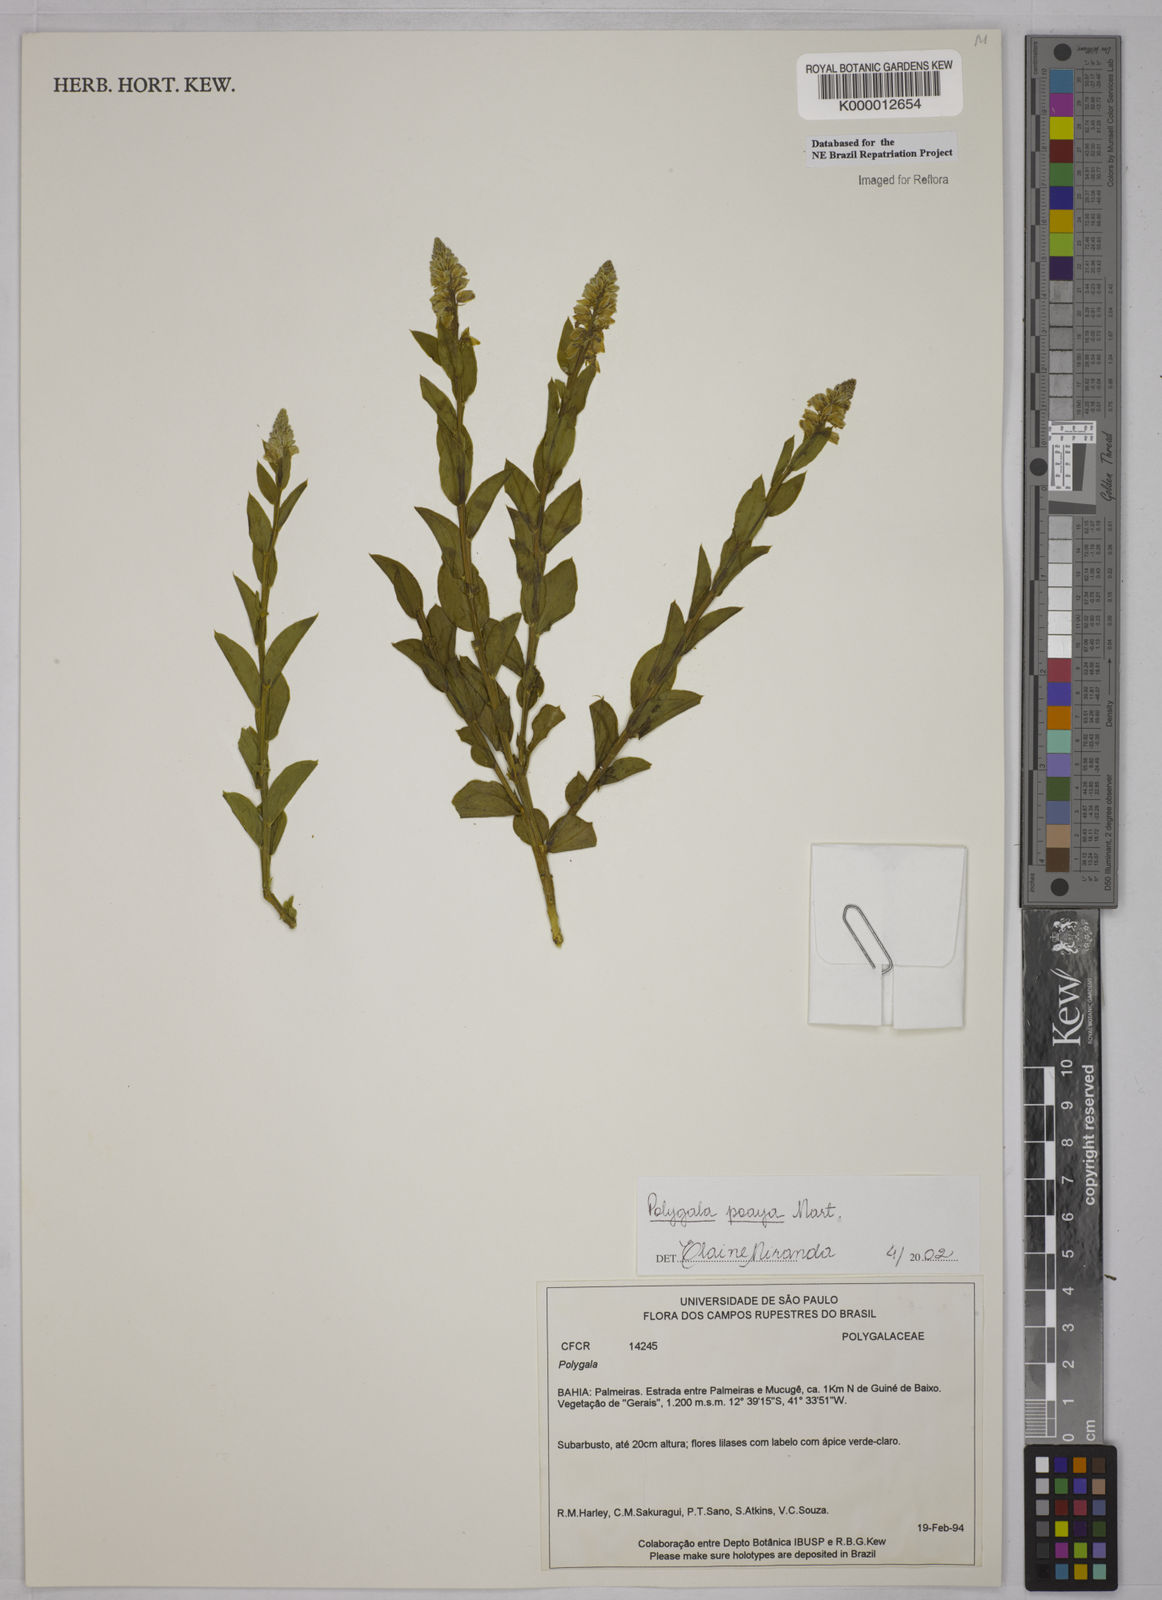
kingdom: Plantae
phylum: Tracheophyta
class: Magnoliopsida
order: Fabales
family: Polygalaceae
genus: Polygala
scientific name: Polygala poaya
